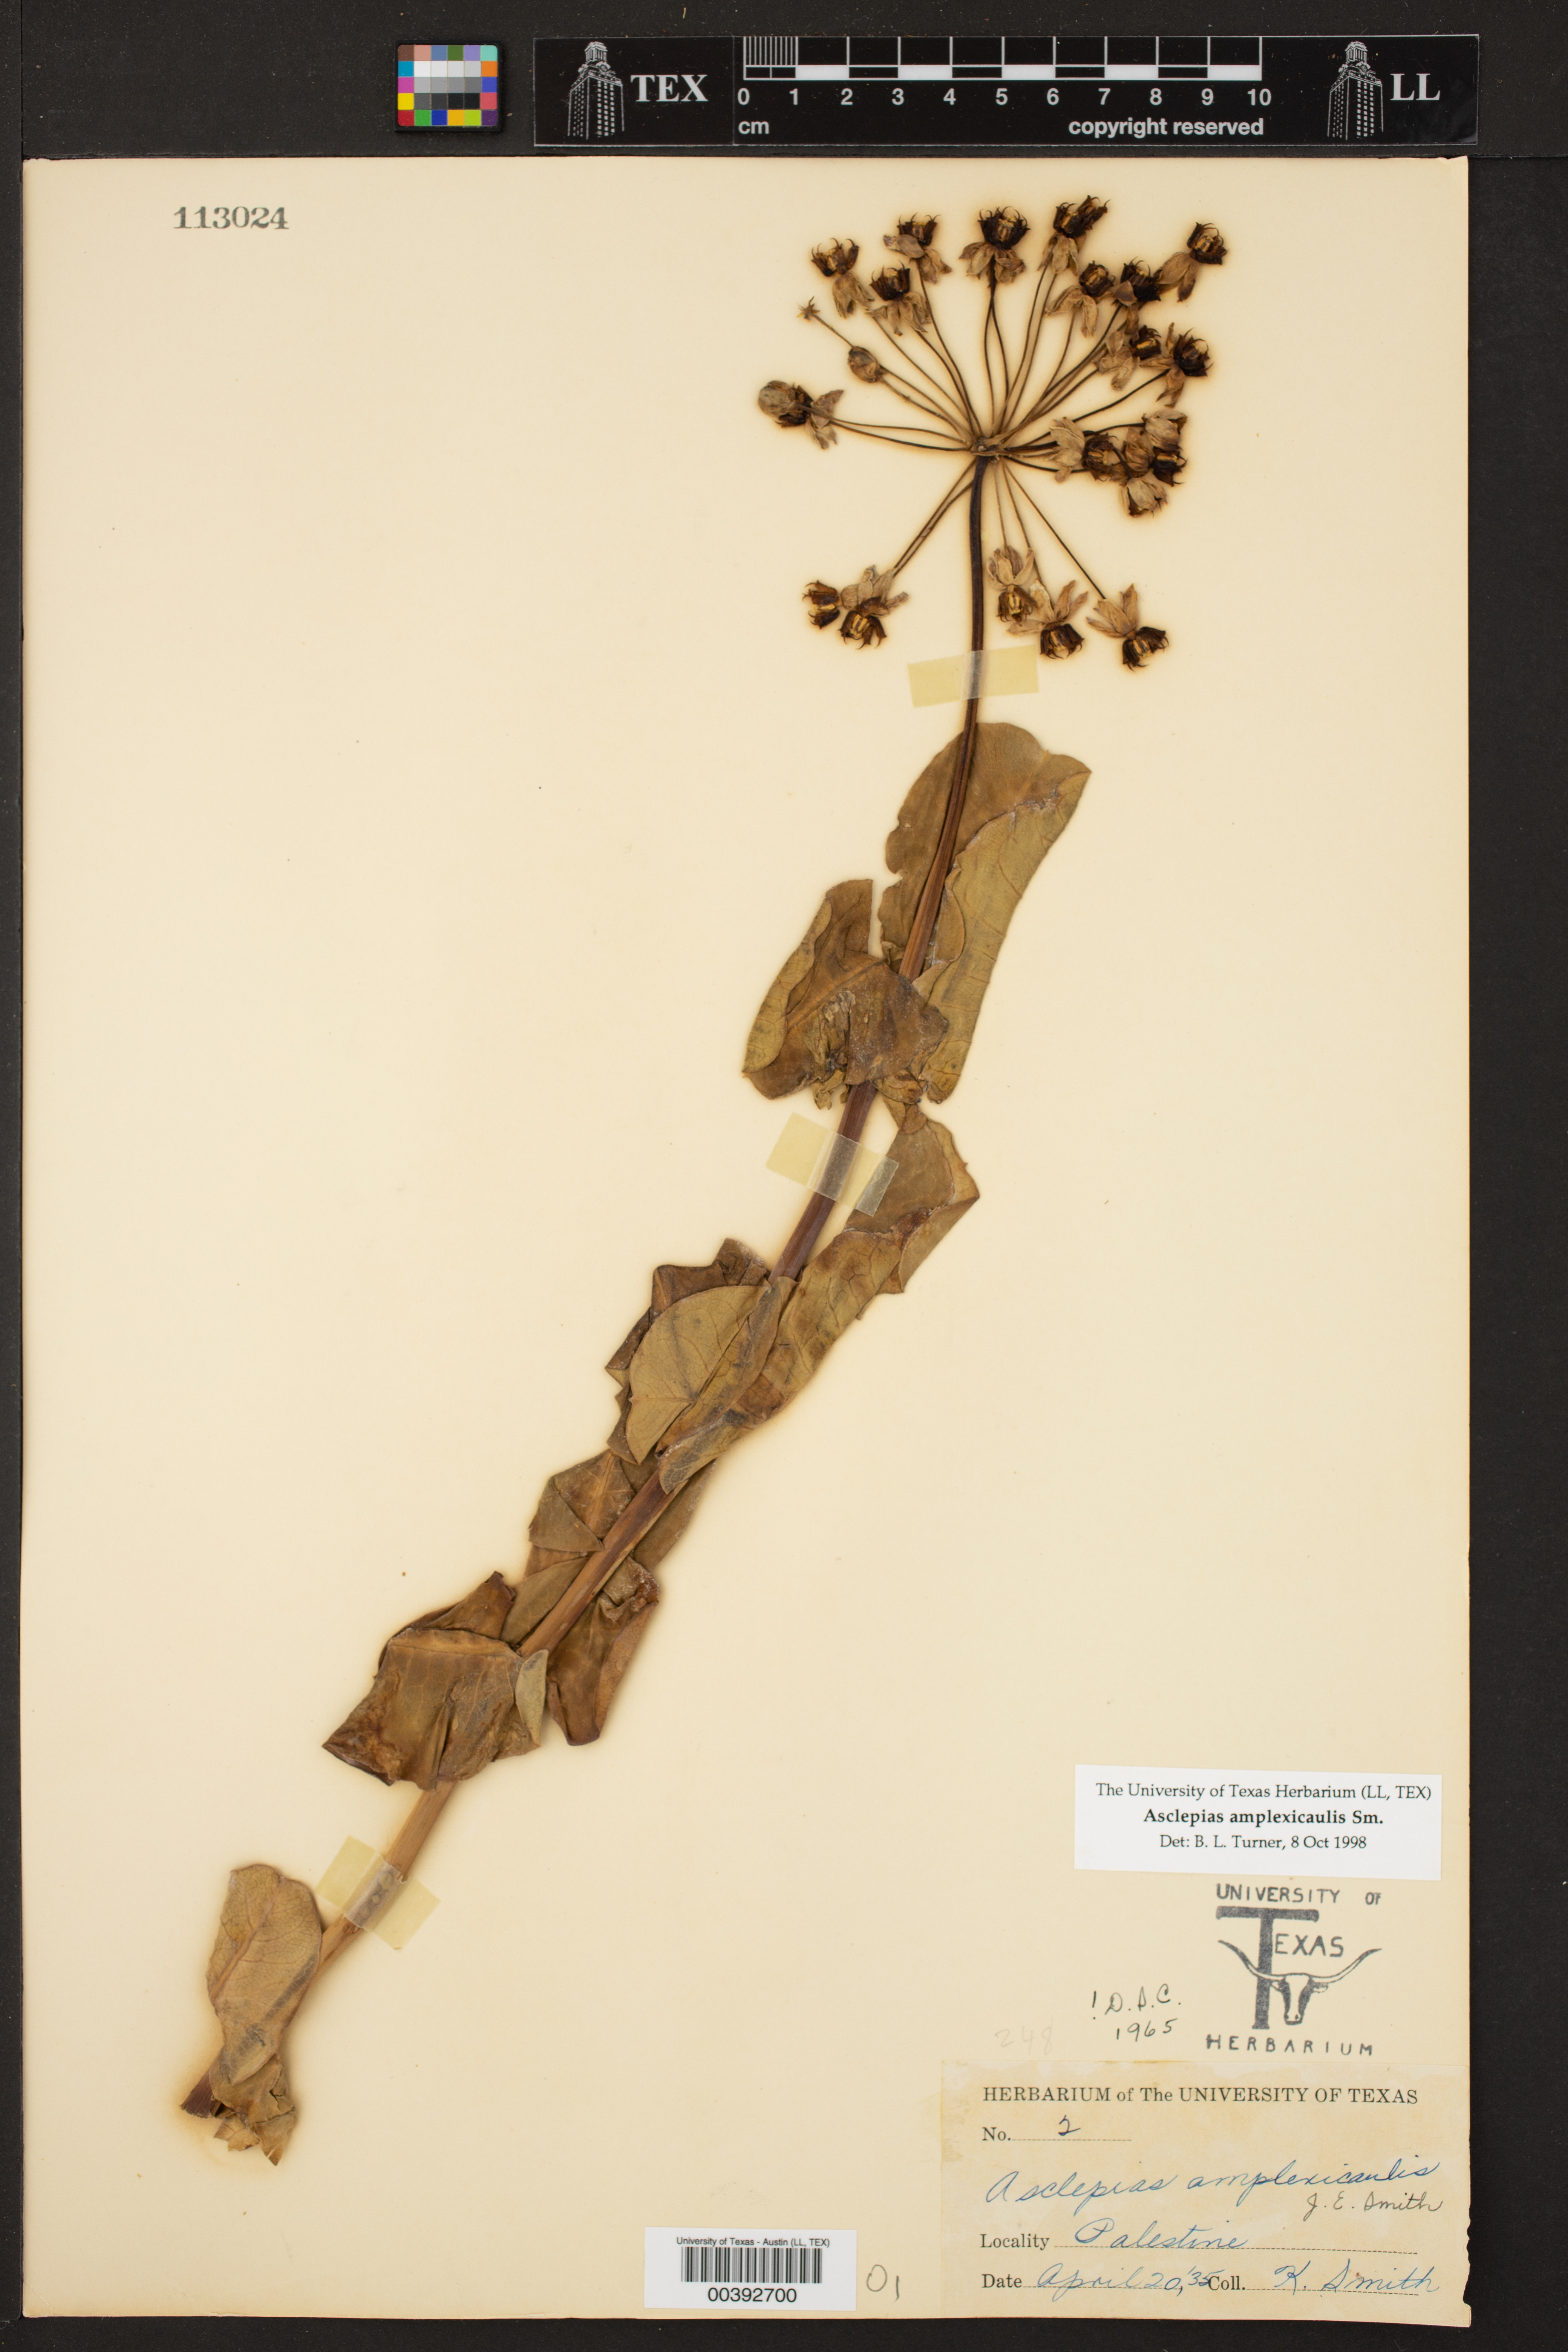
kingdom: Plantae
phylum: Tracheophyta
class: Magnoliopsida
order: Gentianales
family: Apocynaceae
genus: Asclepias
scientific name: Asclepias amplexicaulis
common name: Blunt-leaf milkweed
